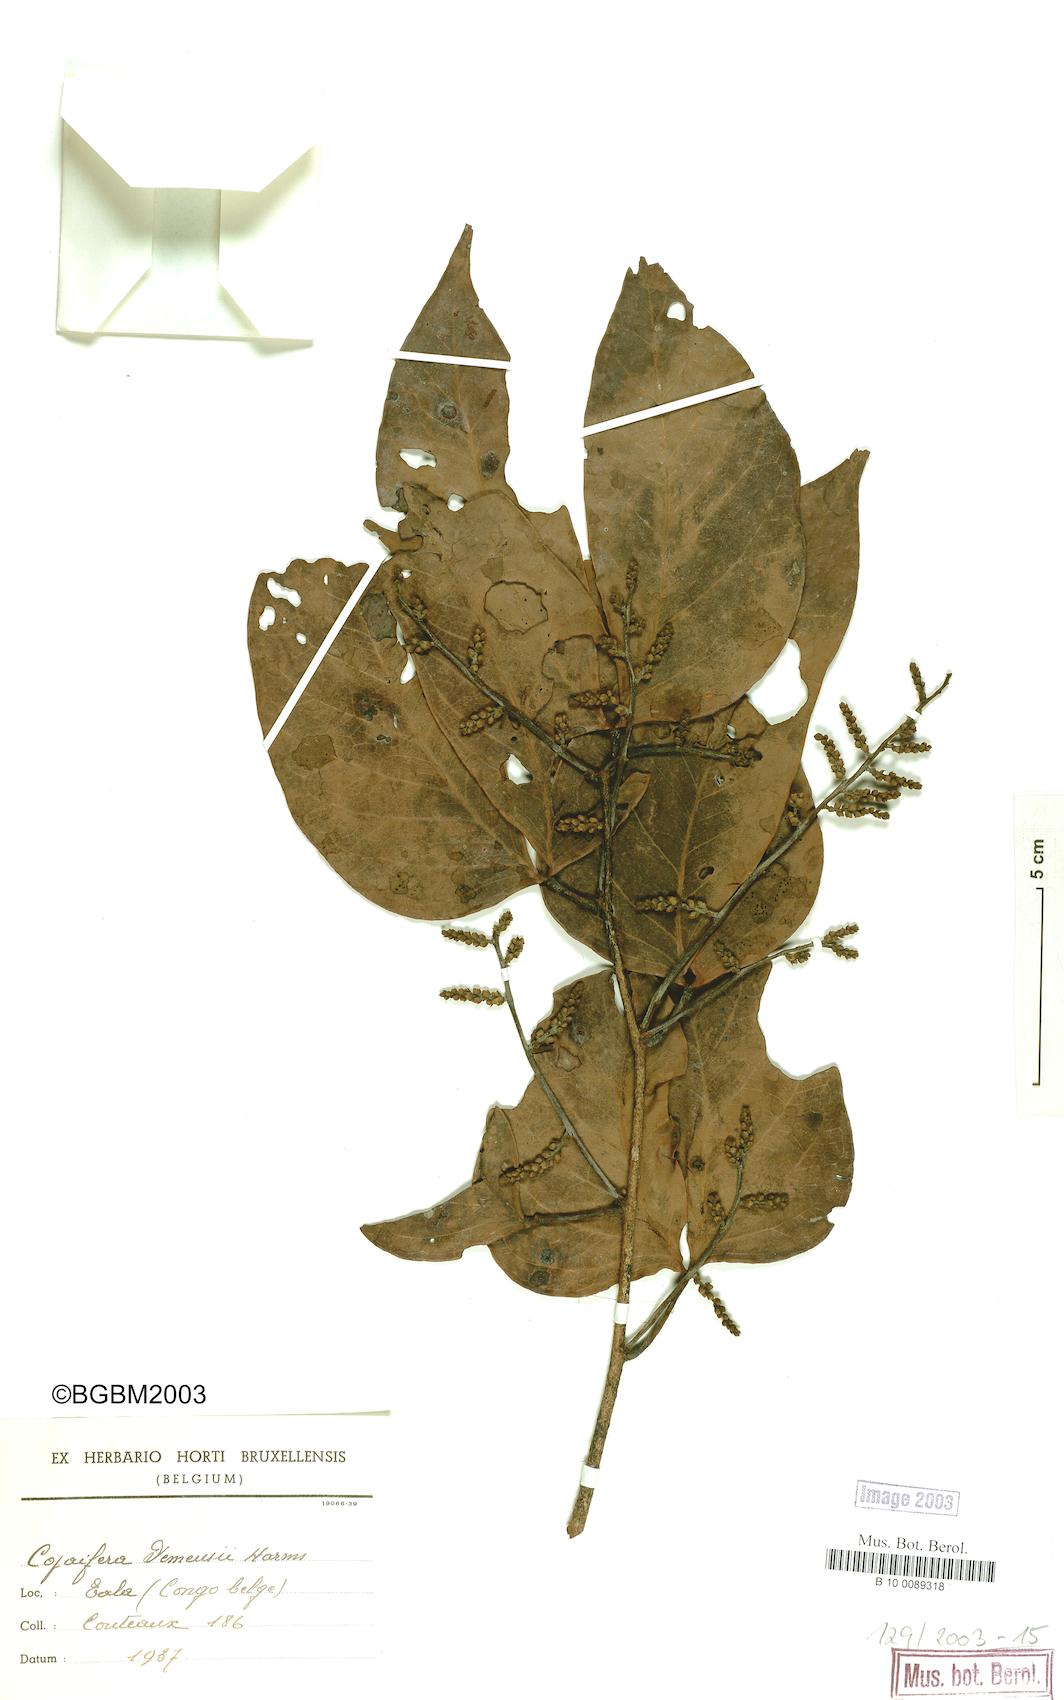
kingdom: Plantae
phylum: Tracheophyta
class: Magnoliopsida
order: Fabales
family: Fabaceae
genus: Guibourtia
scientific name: Guibourtia demeusei
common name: African rosewood
